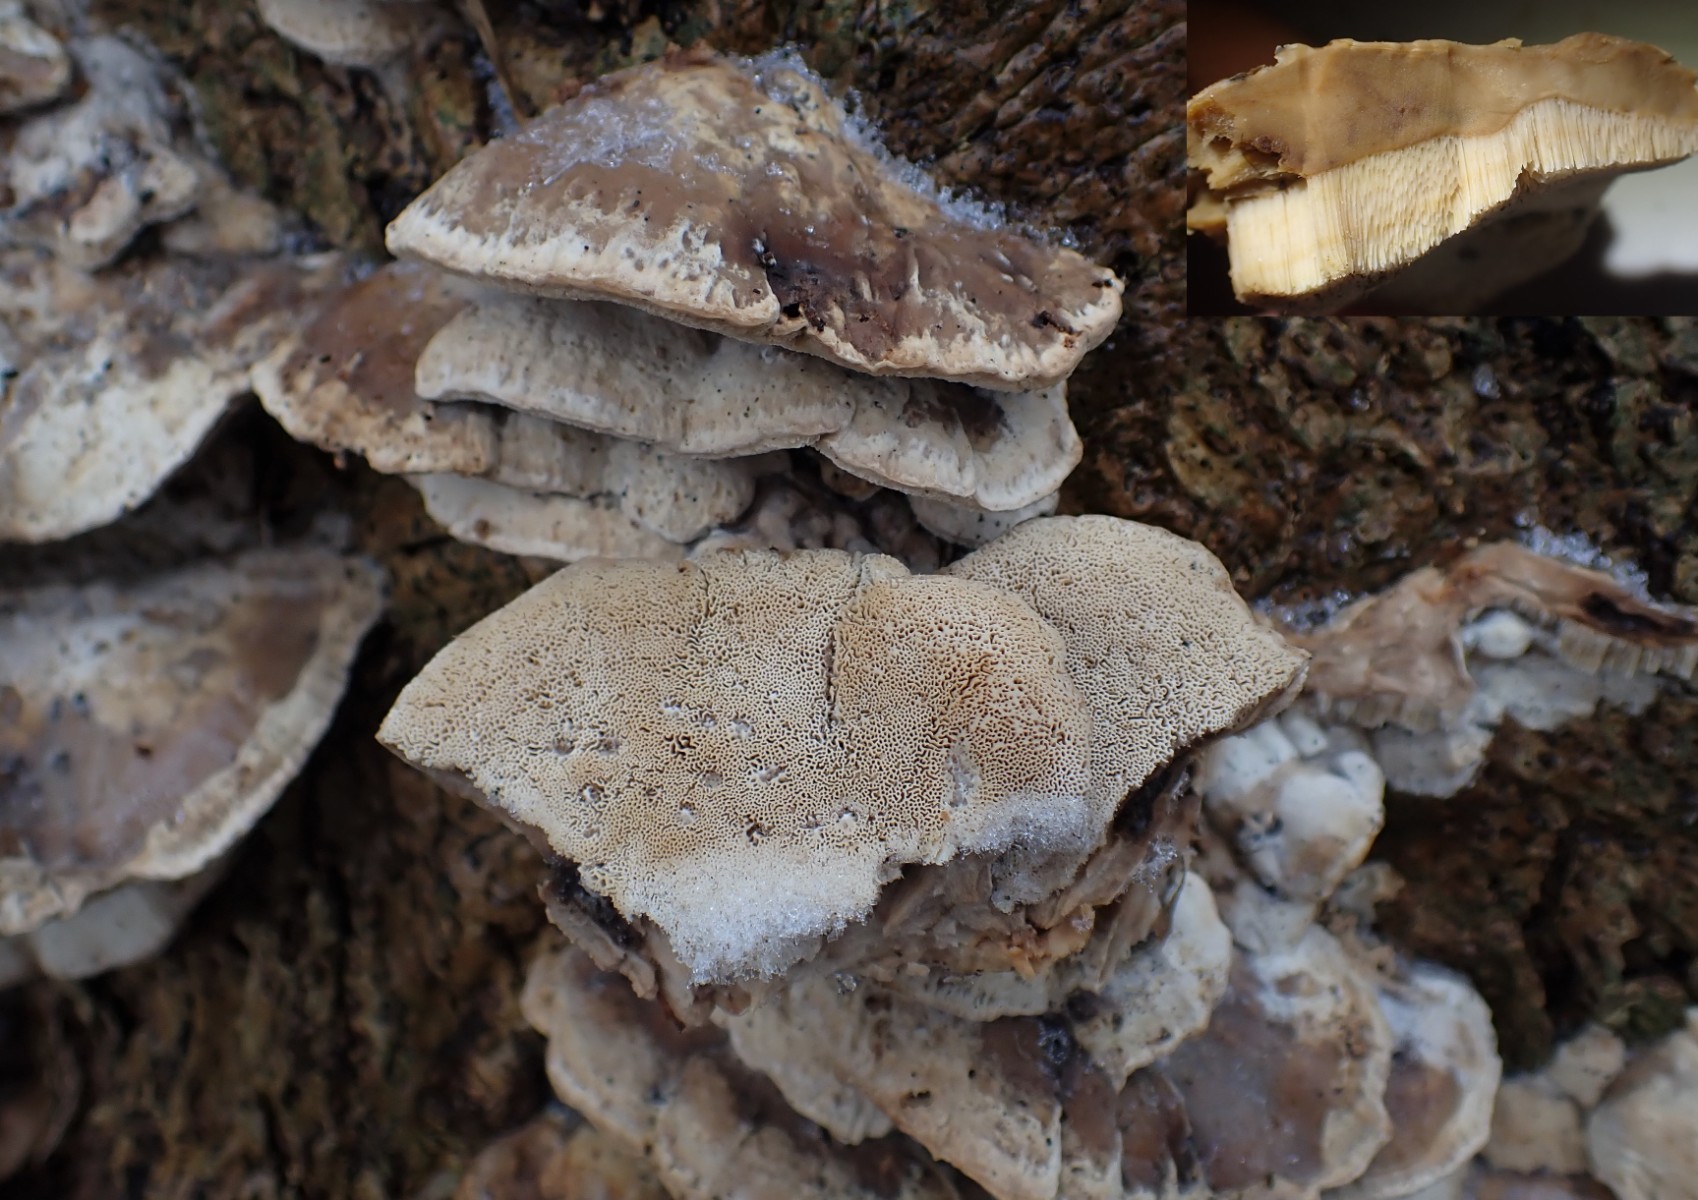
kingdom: Fungi
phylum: Basidiomycota
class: Agaricomycetes
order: Polyporales
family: Phanerochaetaceae
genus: Bjerkandera
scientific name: Bjerkandera fumosa
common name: grågul sodporesvamp
